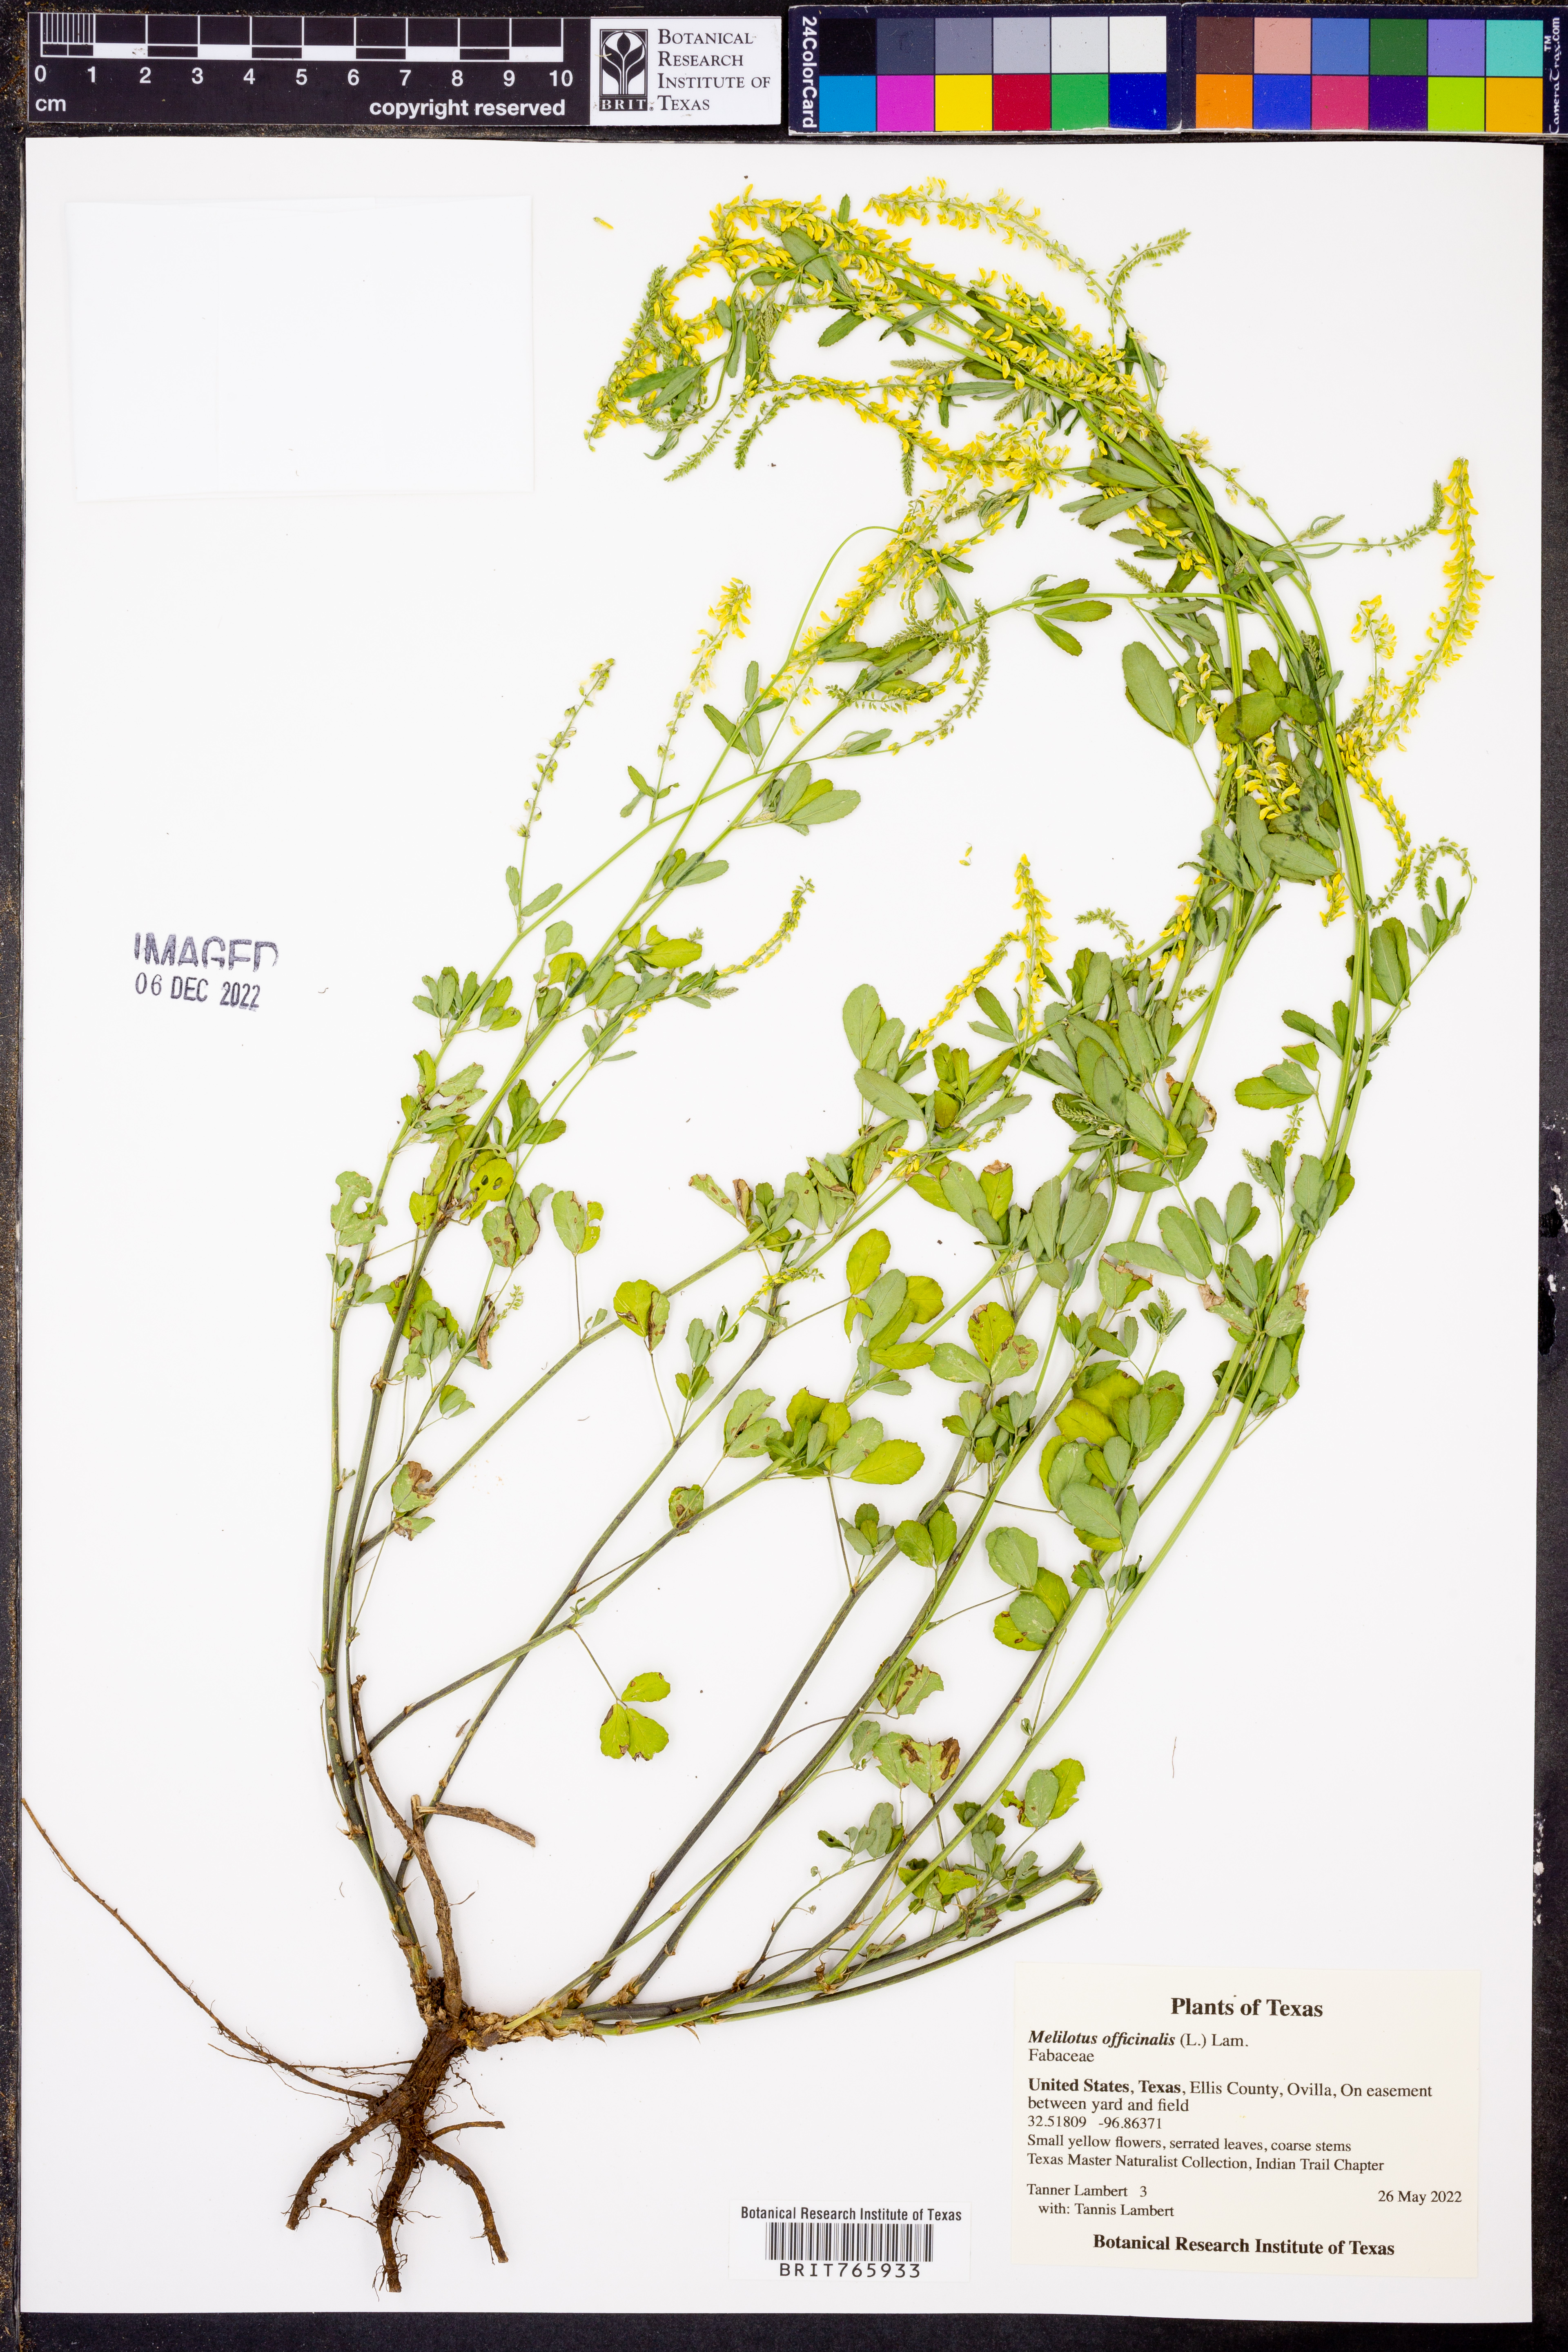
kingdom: Plantae
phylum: Tracheophyta
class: Magnoliopsida
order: Fabales
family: Fabaceae
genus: Melilotus
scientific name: Melilotus officinalis
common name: Sweetclover
